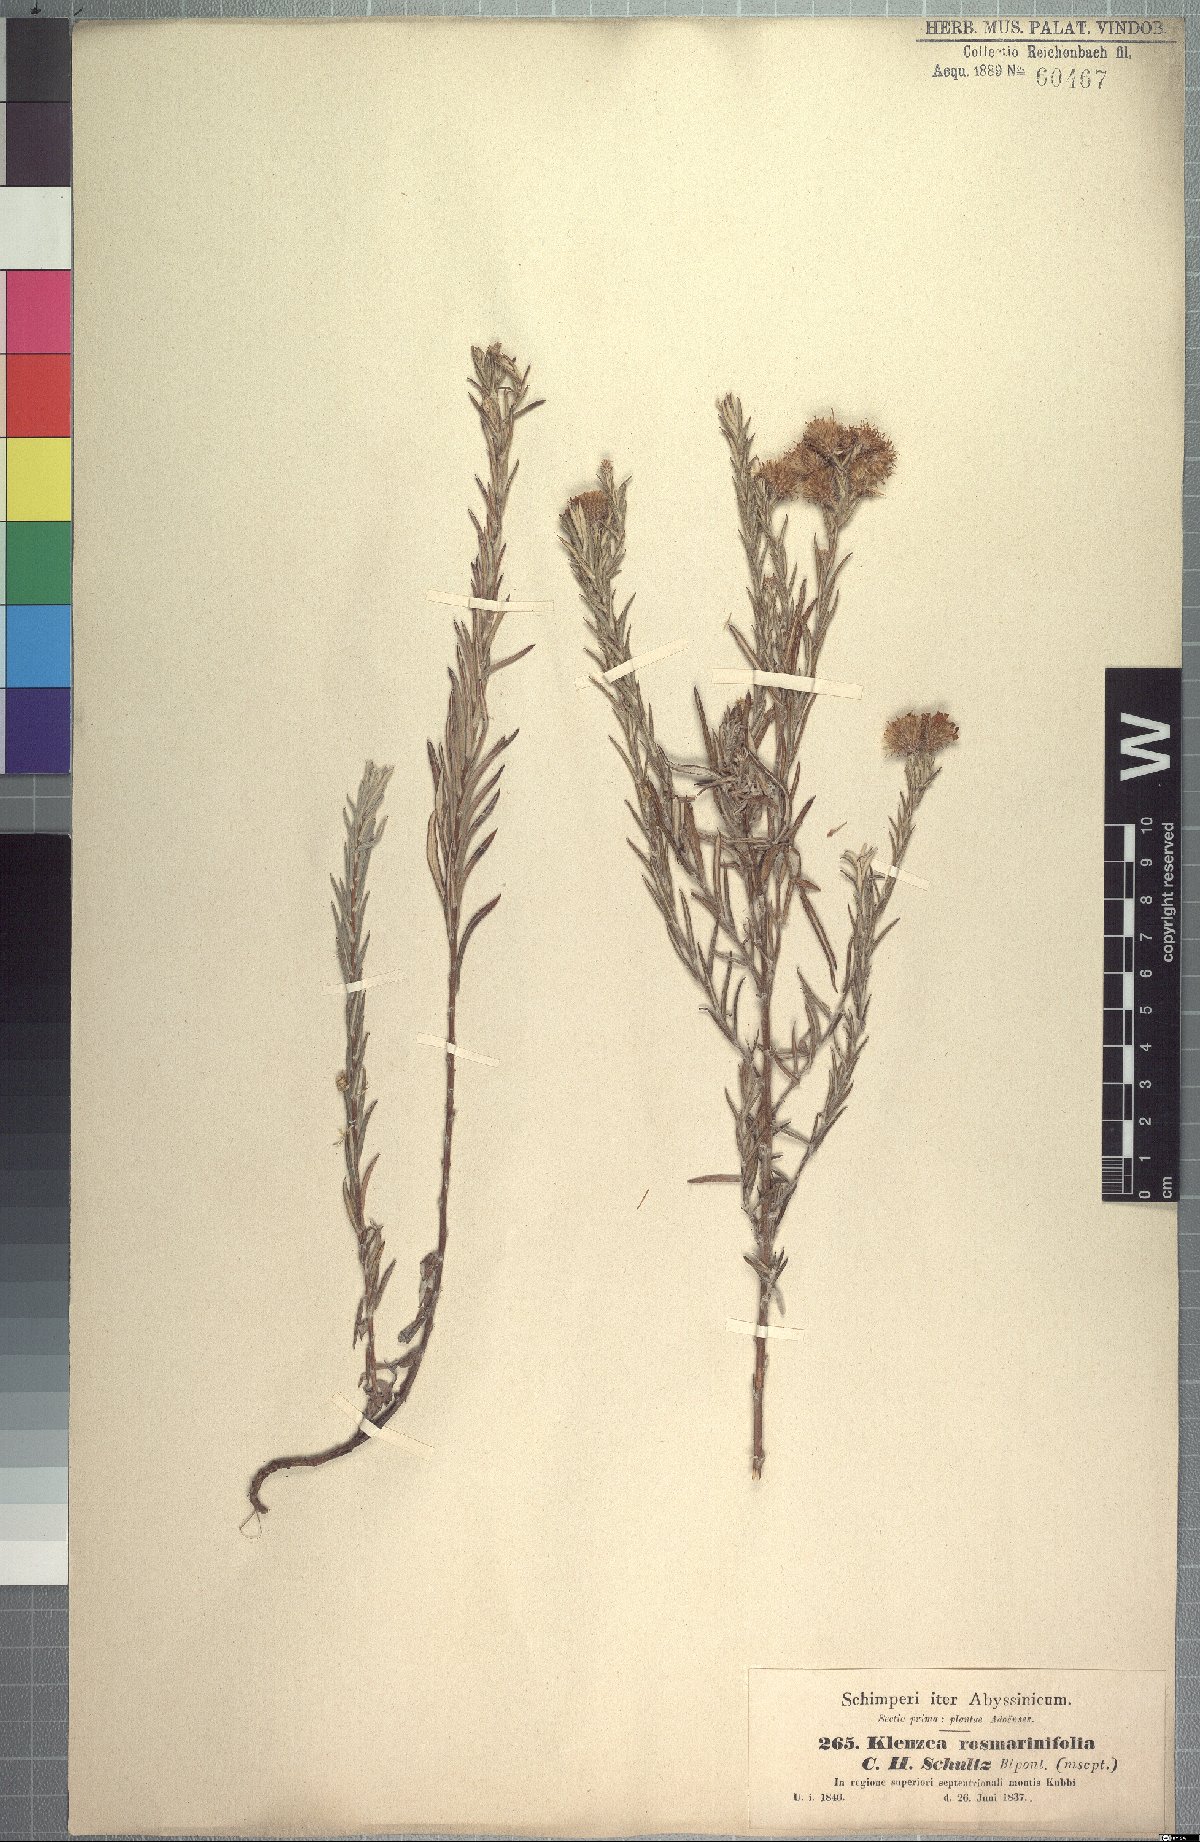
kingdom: Plantae
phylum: Tracheophyta
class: Magnoliopsida
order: Asterales
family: Asteraceae
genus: Athrixia
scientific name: Athrixia rosmarinifolia
